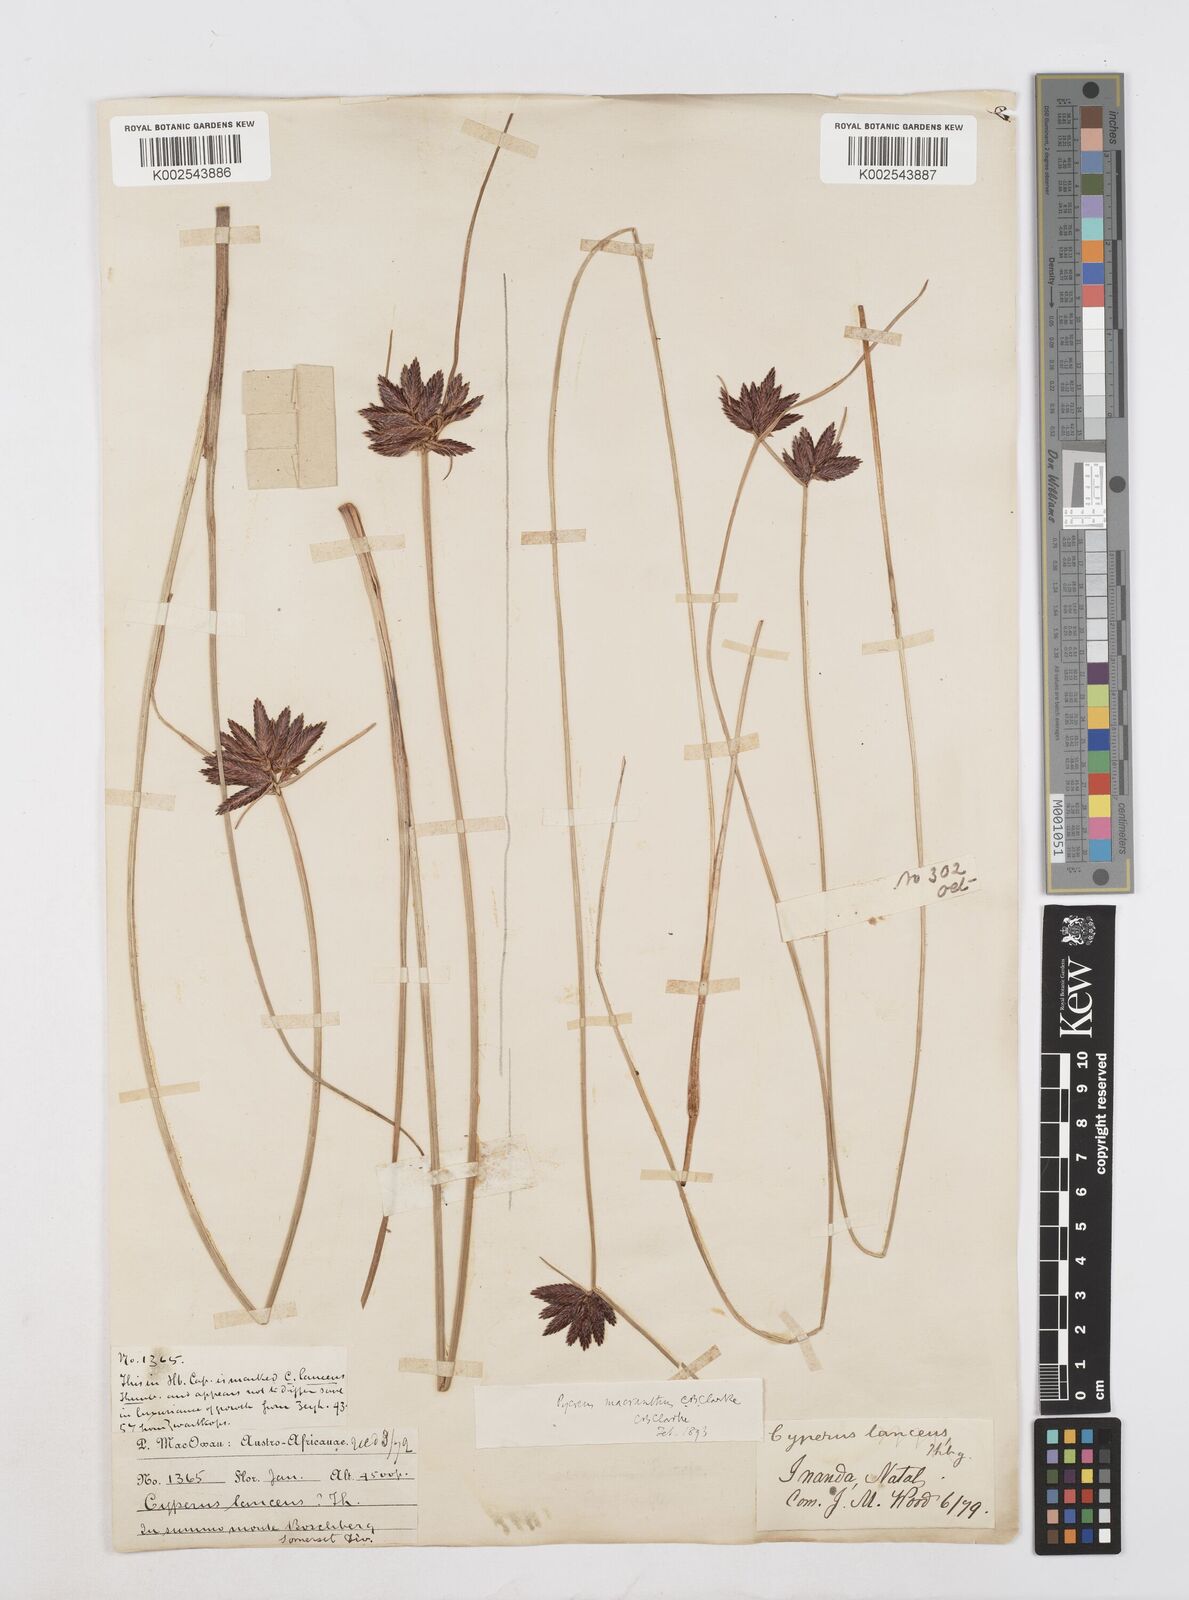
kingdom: Plantae
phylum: Tracheophyta
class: Liliopsida
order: Poales
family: Cyperaceae
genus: Cyperus
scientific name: Cyperus nigricans
